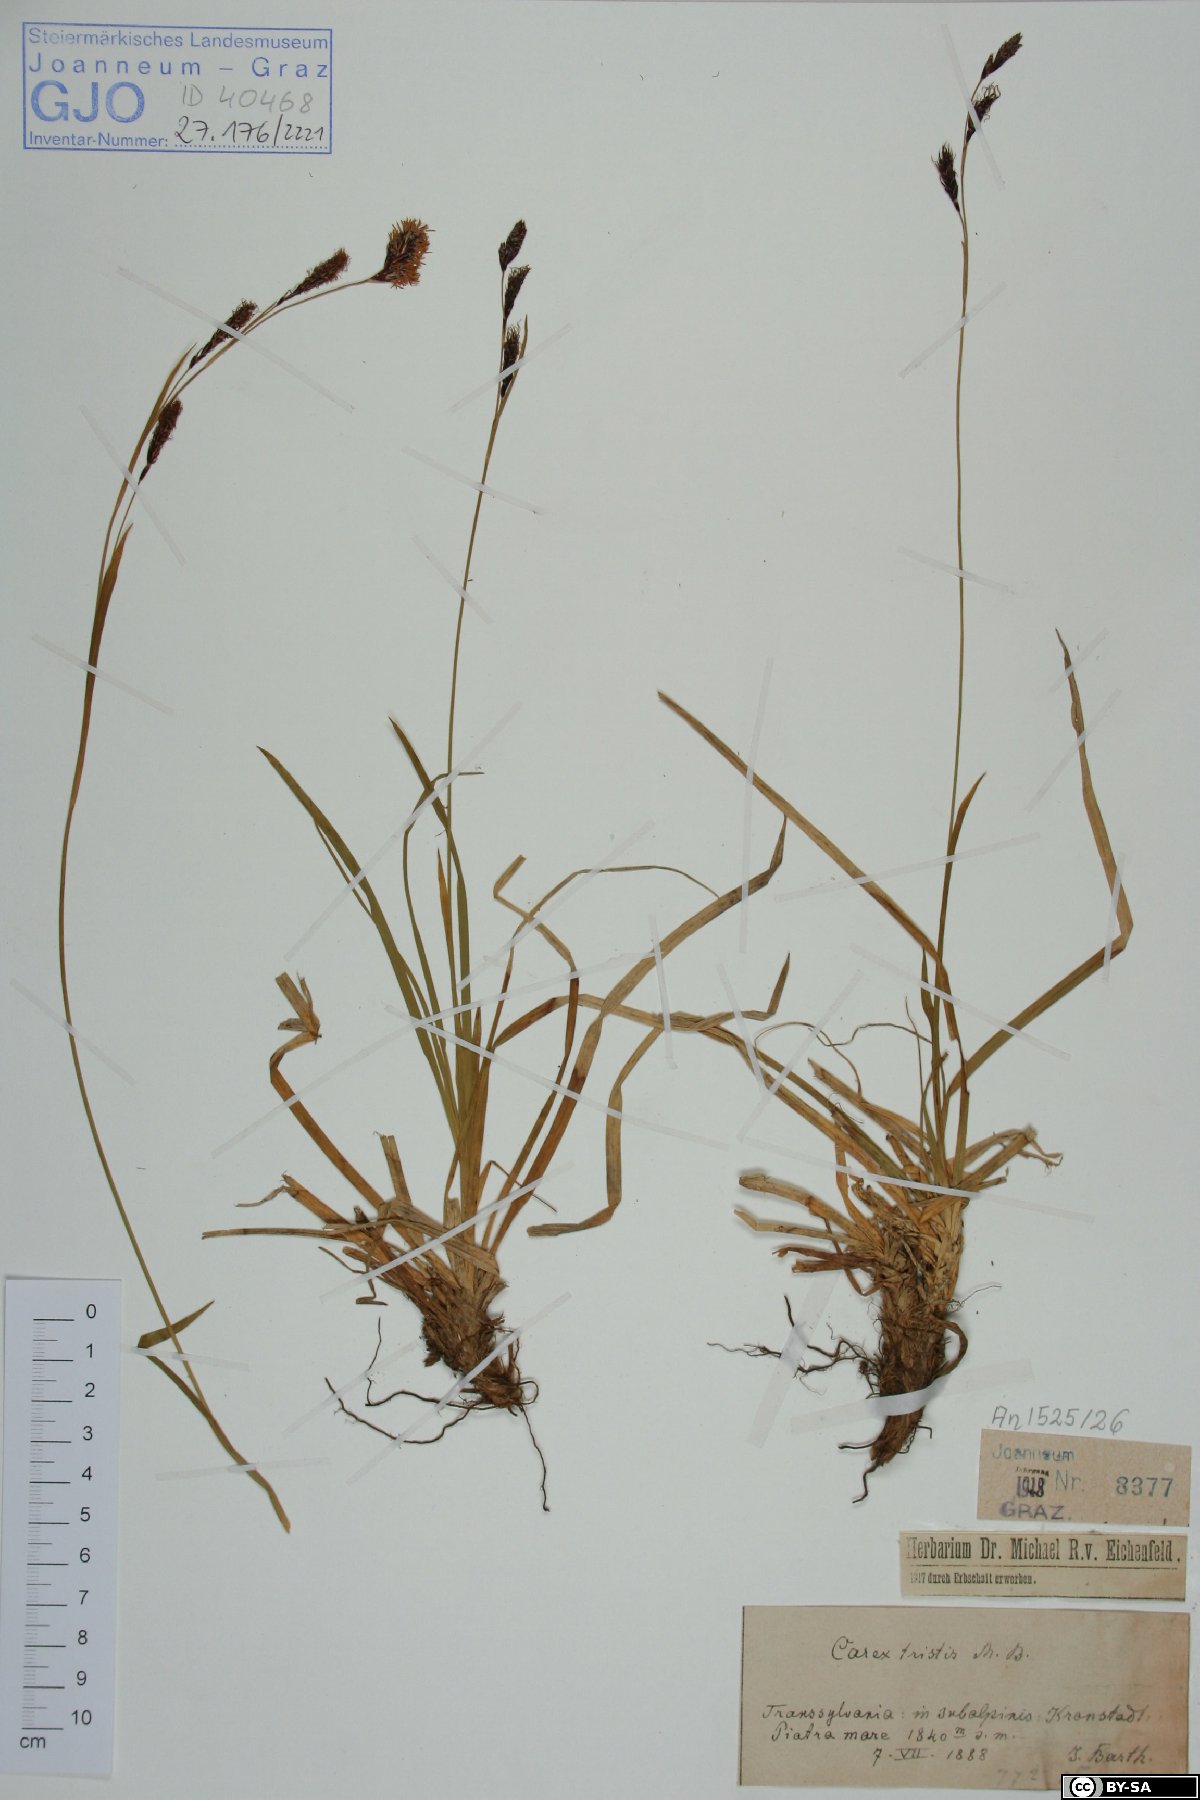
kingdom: Plantae
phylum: Tracheophyta
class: Liliopsida
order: Poales
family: Cyperaceae
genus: Carex
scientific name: Carex tristis
